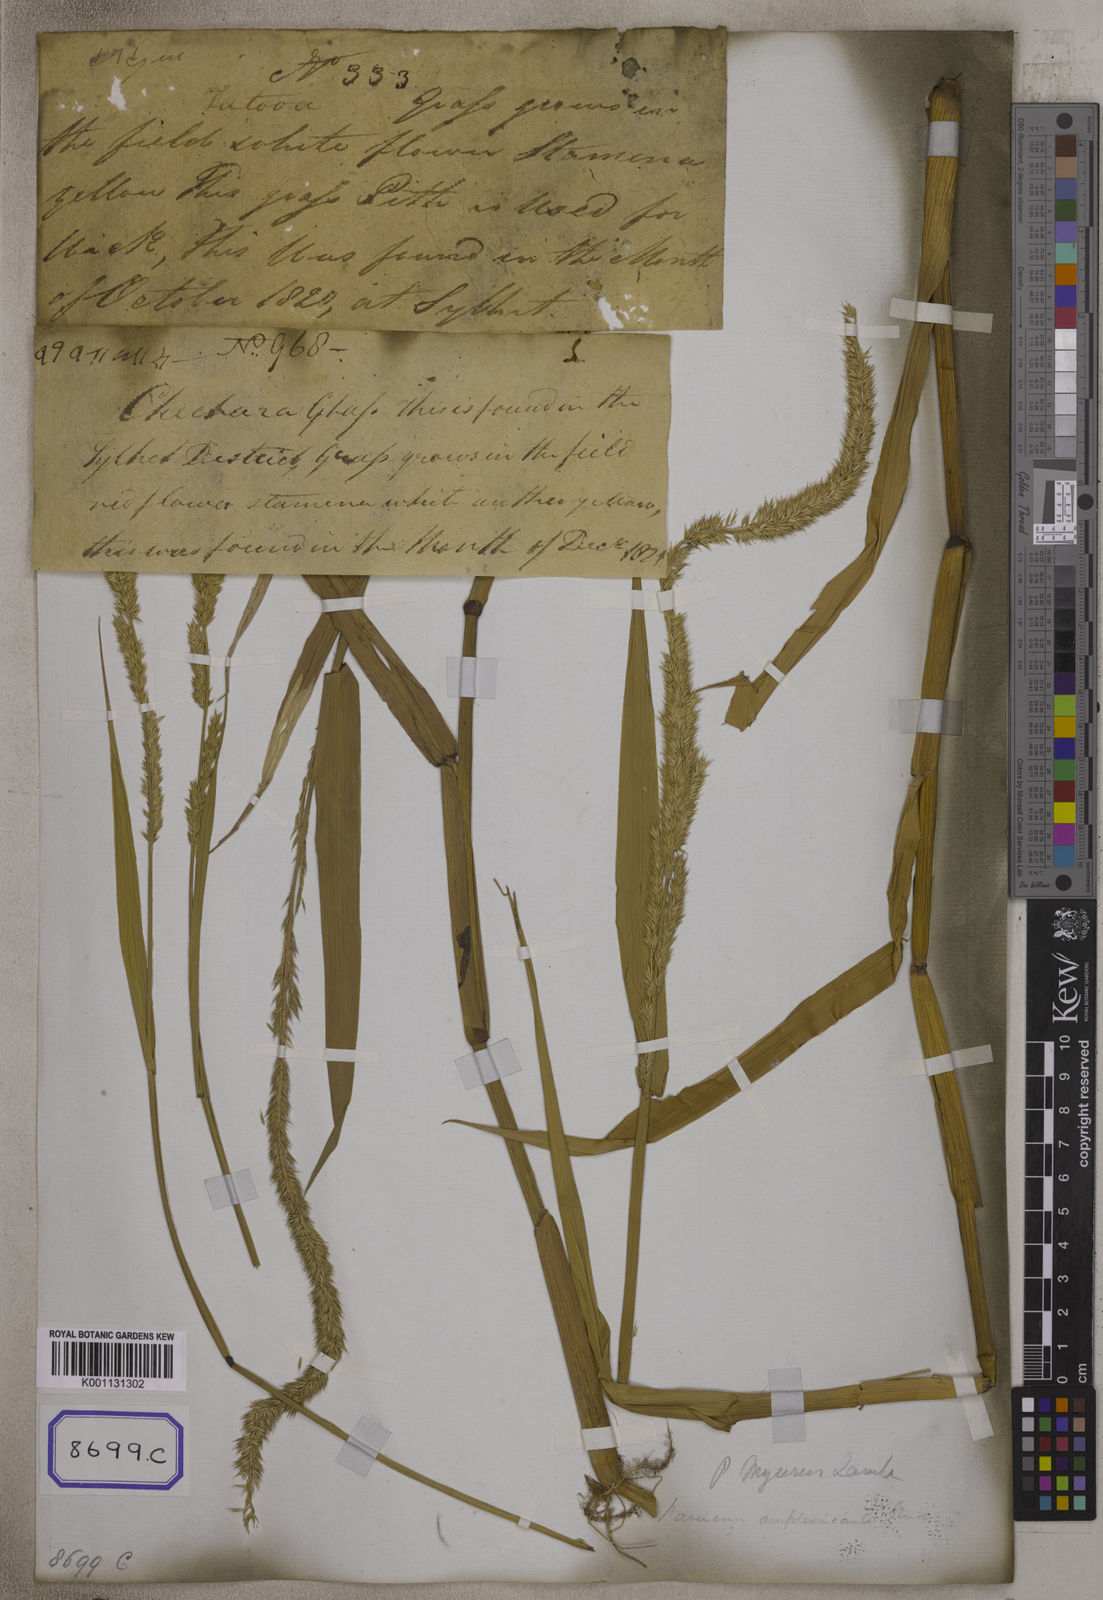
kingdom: Plantae
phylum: Tracheophyta
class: Liliopsida
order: Poales
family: Poaceae
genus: Panicum
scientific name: Panicum
